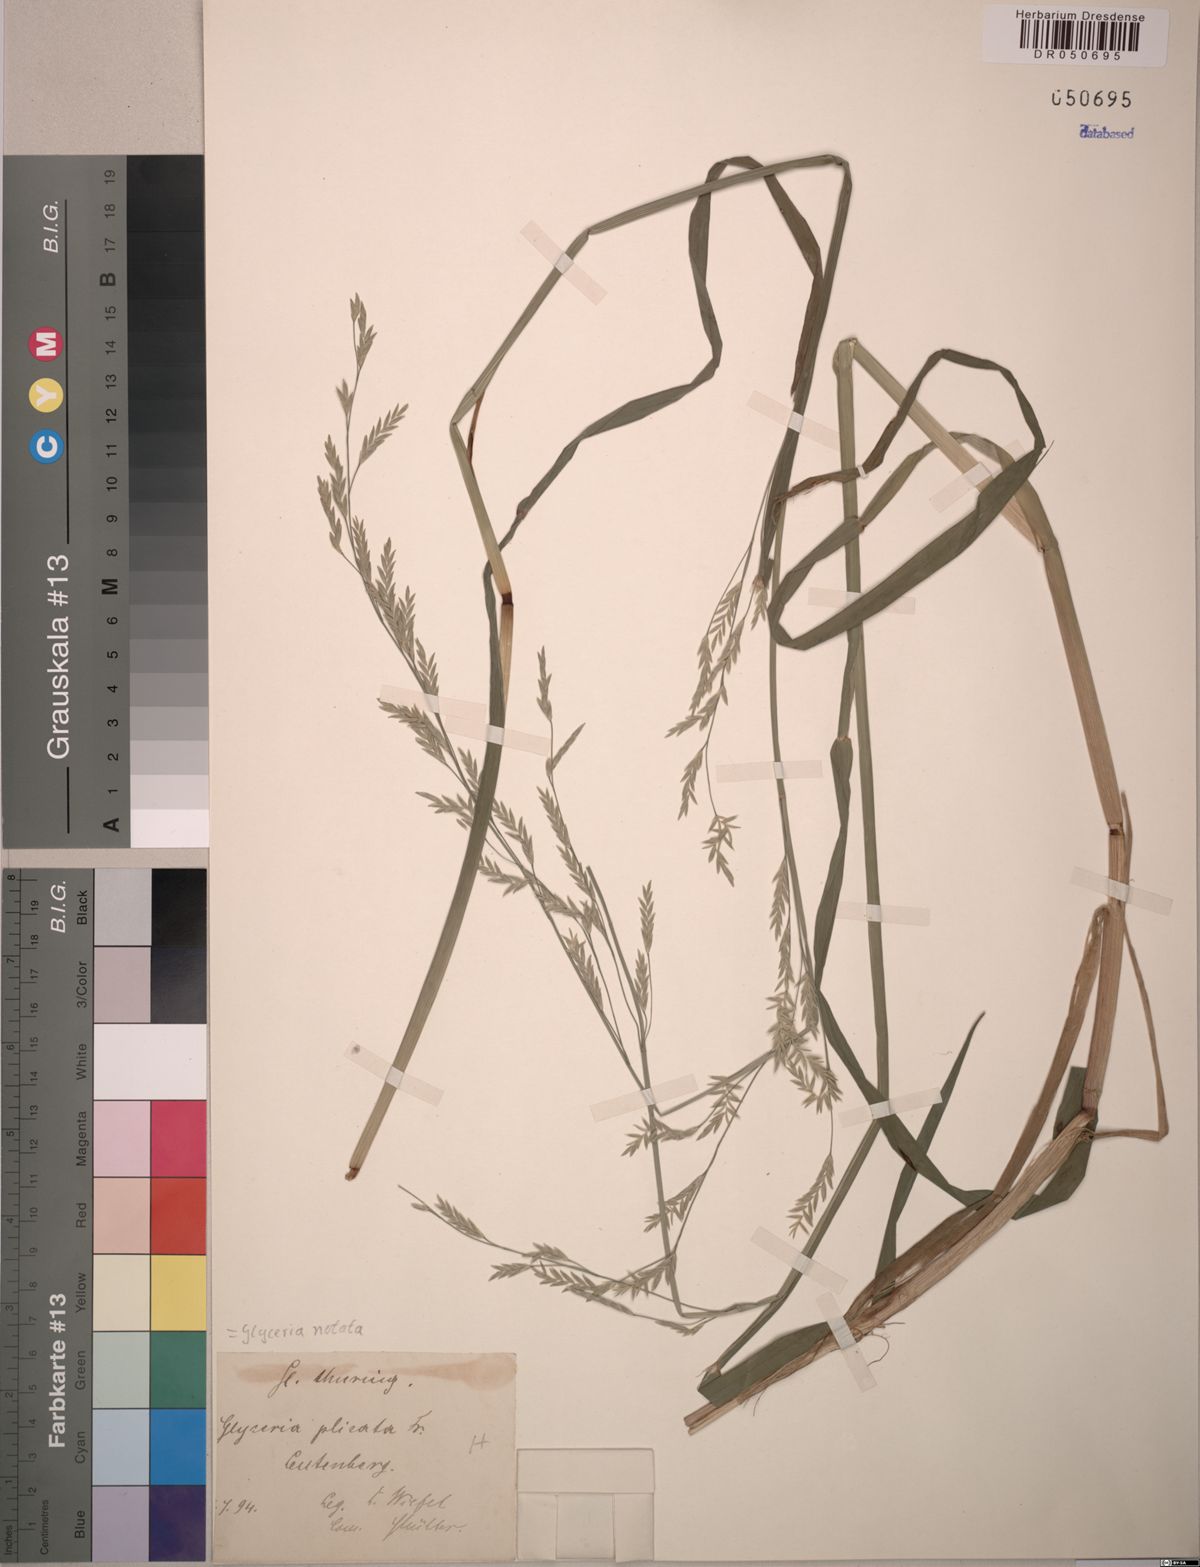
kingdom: Plantae
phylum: Tracheophyta
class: Liliopsida
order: Poales
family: Poaceae
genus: Glyceria
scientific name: Glyceria notata
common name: Plicate sweet-grass
